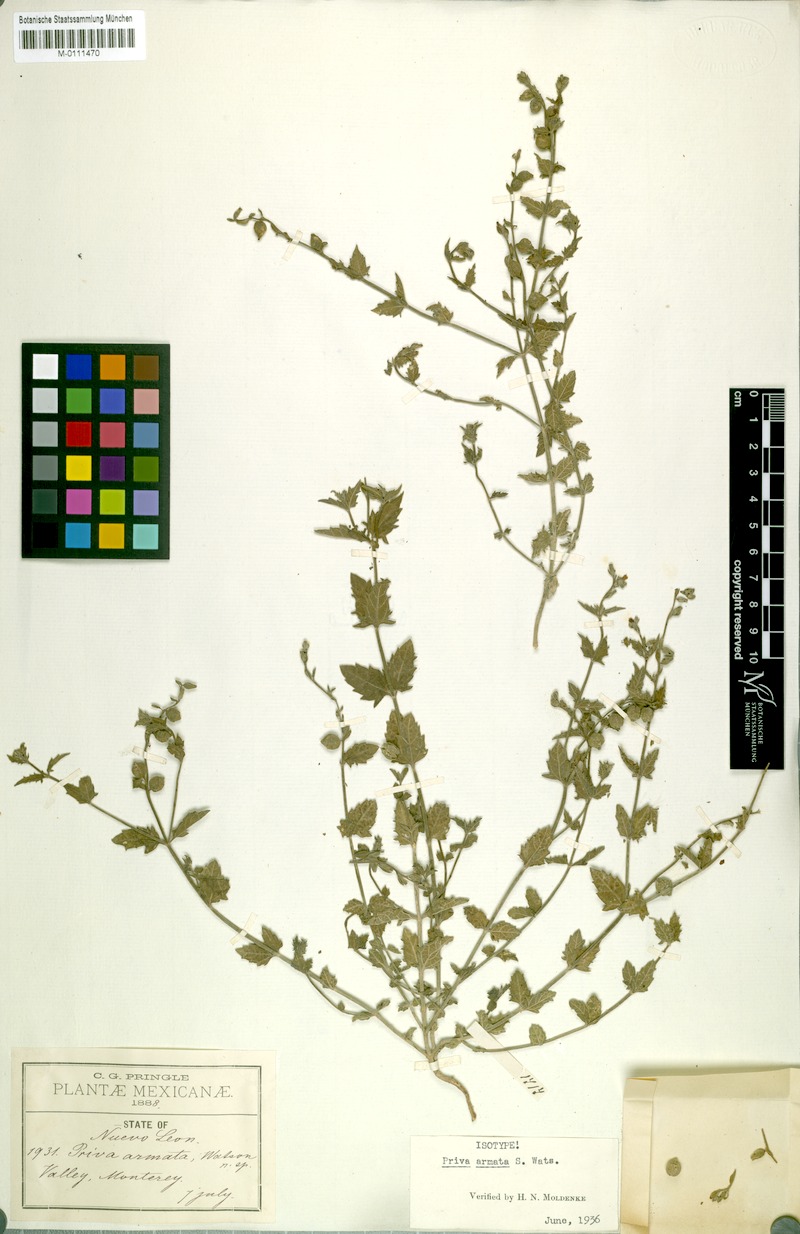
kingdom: Plantae
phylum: Tracheophyta
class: Magnoliopsida
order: Lamiales
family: Verbenaceae
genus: Priva
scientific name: Priva armata
